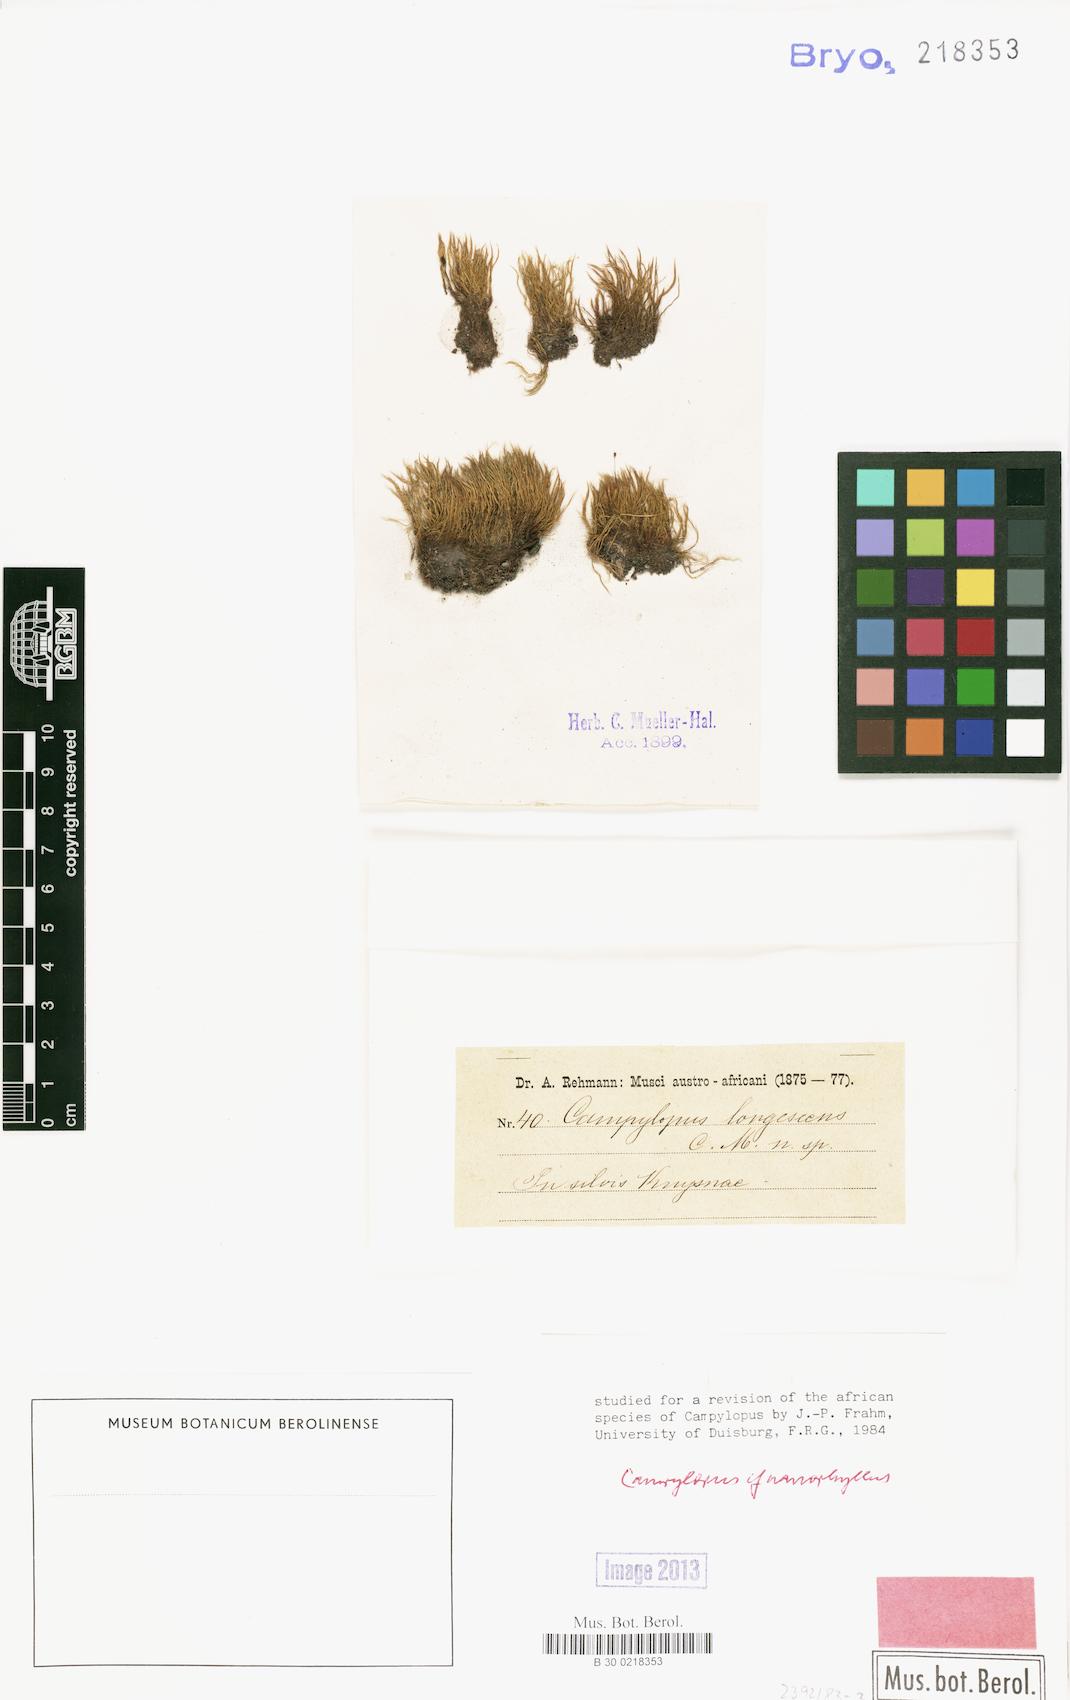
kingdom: Plantae
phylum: Bryophyta
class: Bryopsida
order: Dicranales
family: Leucobryaceae
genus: Campylopus
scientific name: Campylopus nanophyllus
